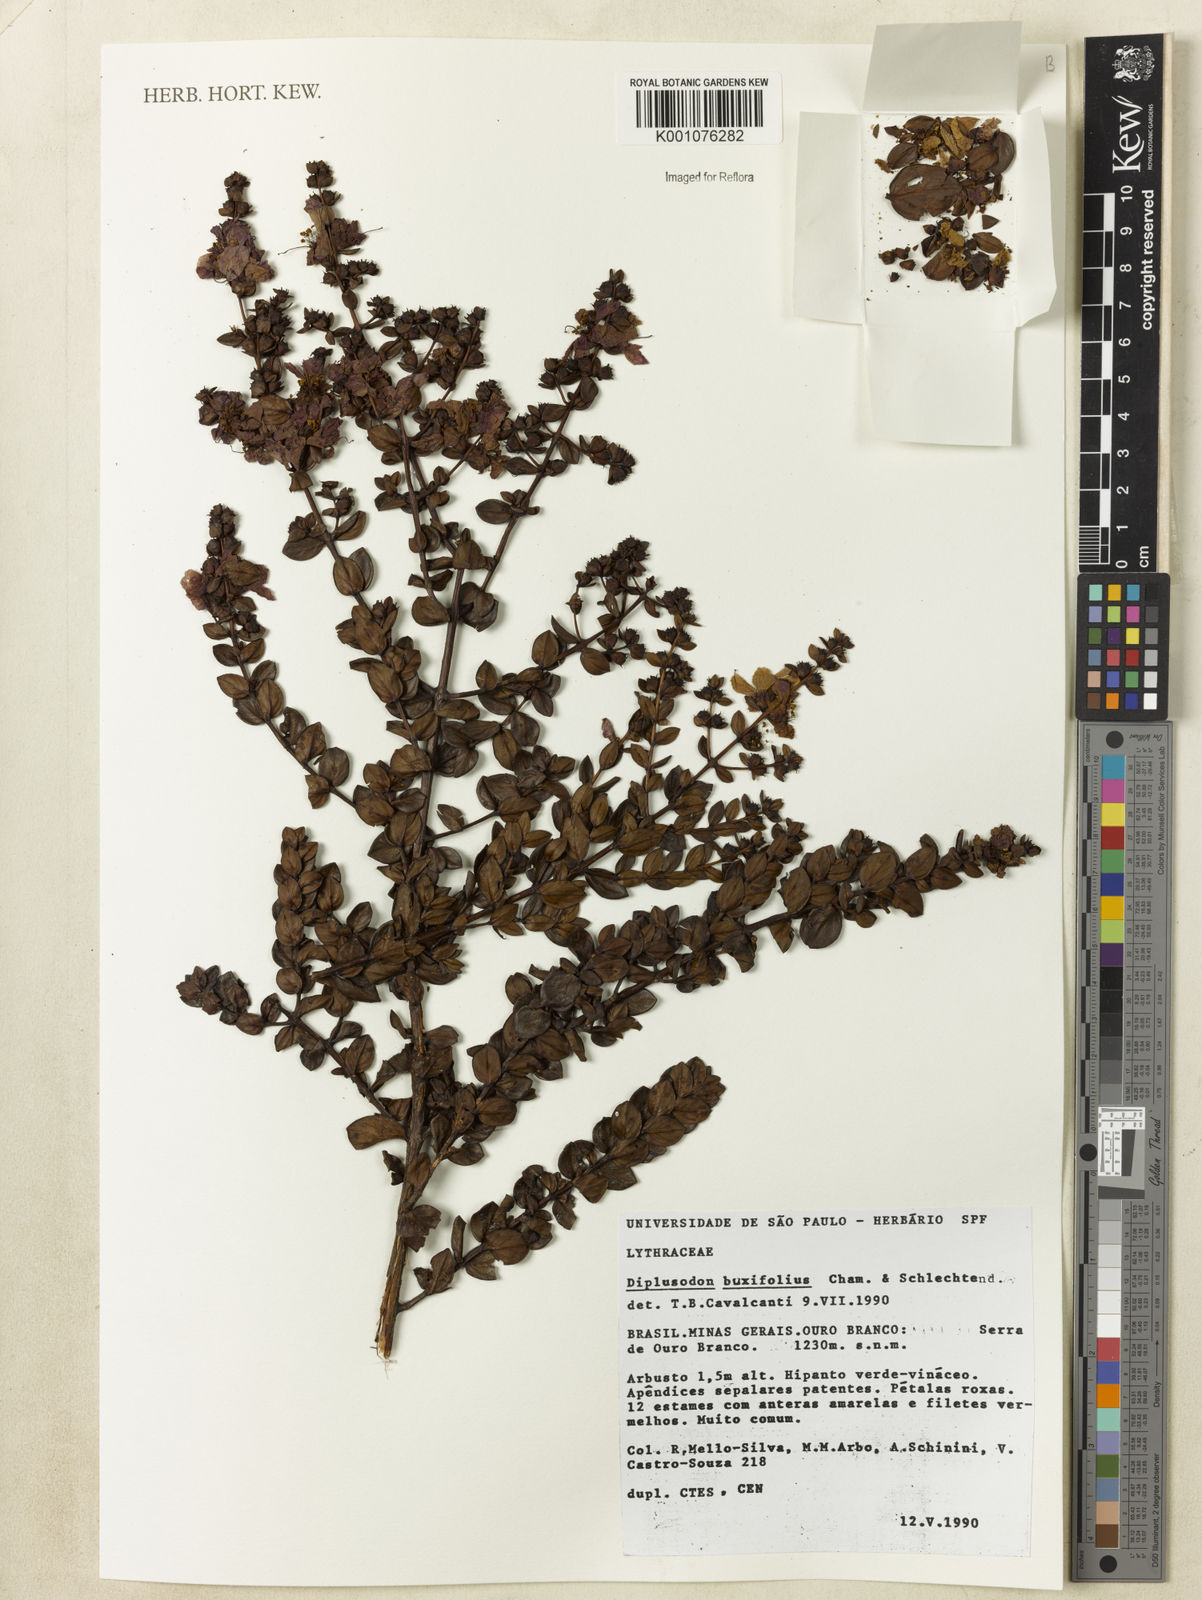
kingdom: Plantae
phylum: Tracheophyta
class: Magnoliopsida
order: Myrtales
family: Lythraceae
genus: Diplusodon
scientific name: Diplusodon buxifolius
